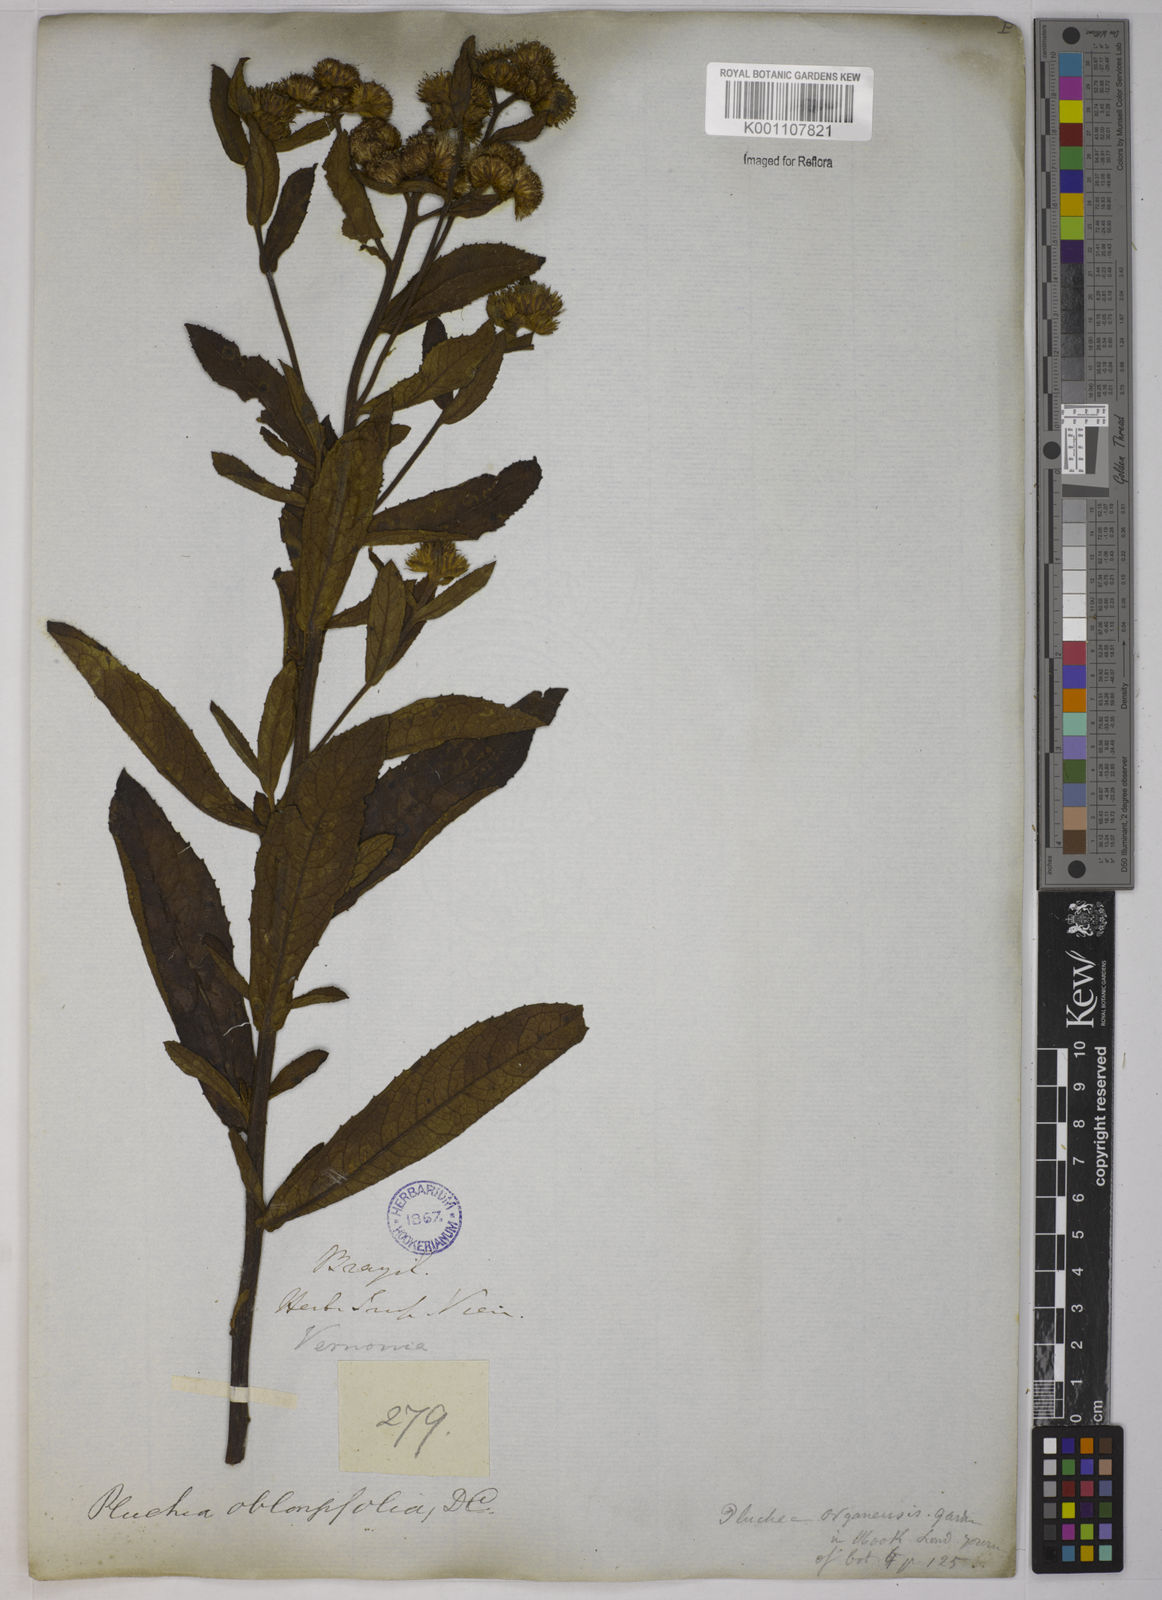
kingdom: Plantae
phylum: Tracheophyta
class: Magnoliopsida
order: Asterales
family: Asteraceae
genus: Pluchea
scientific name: Pluchea oblongifolia
